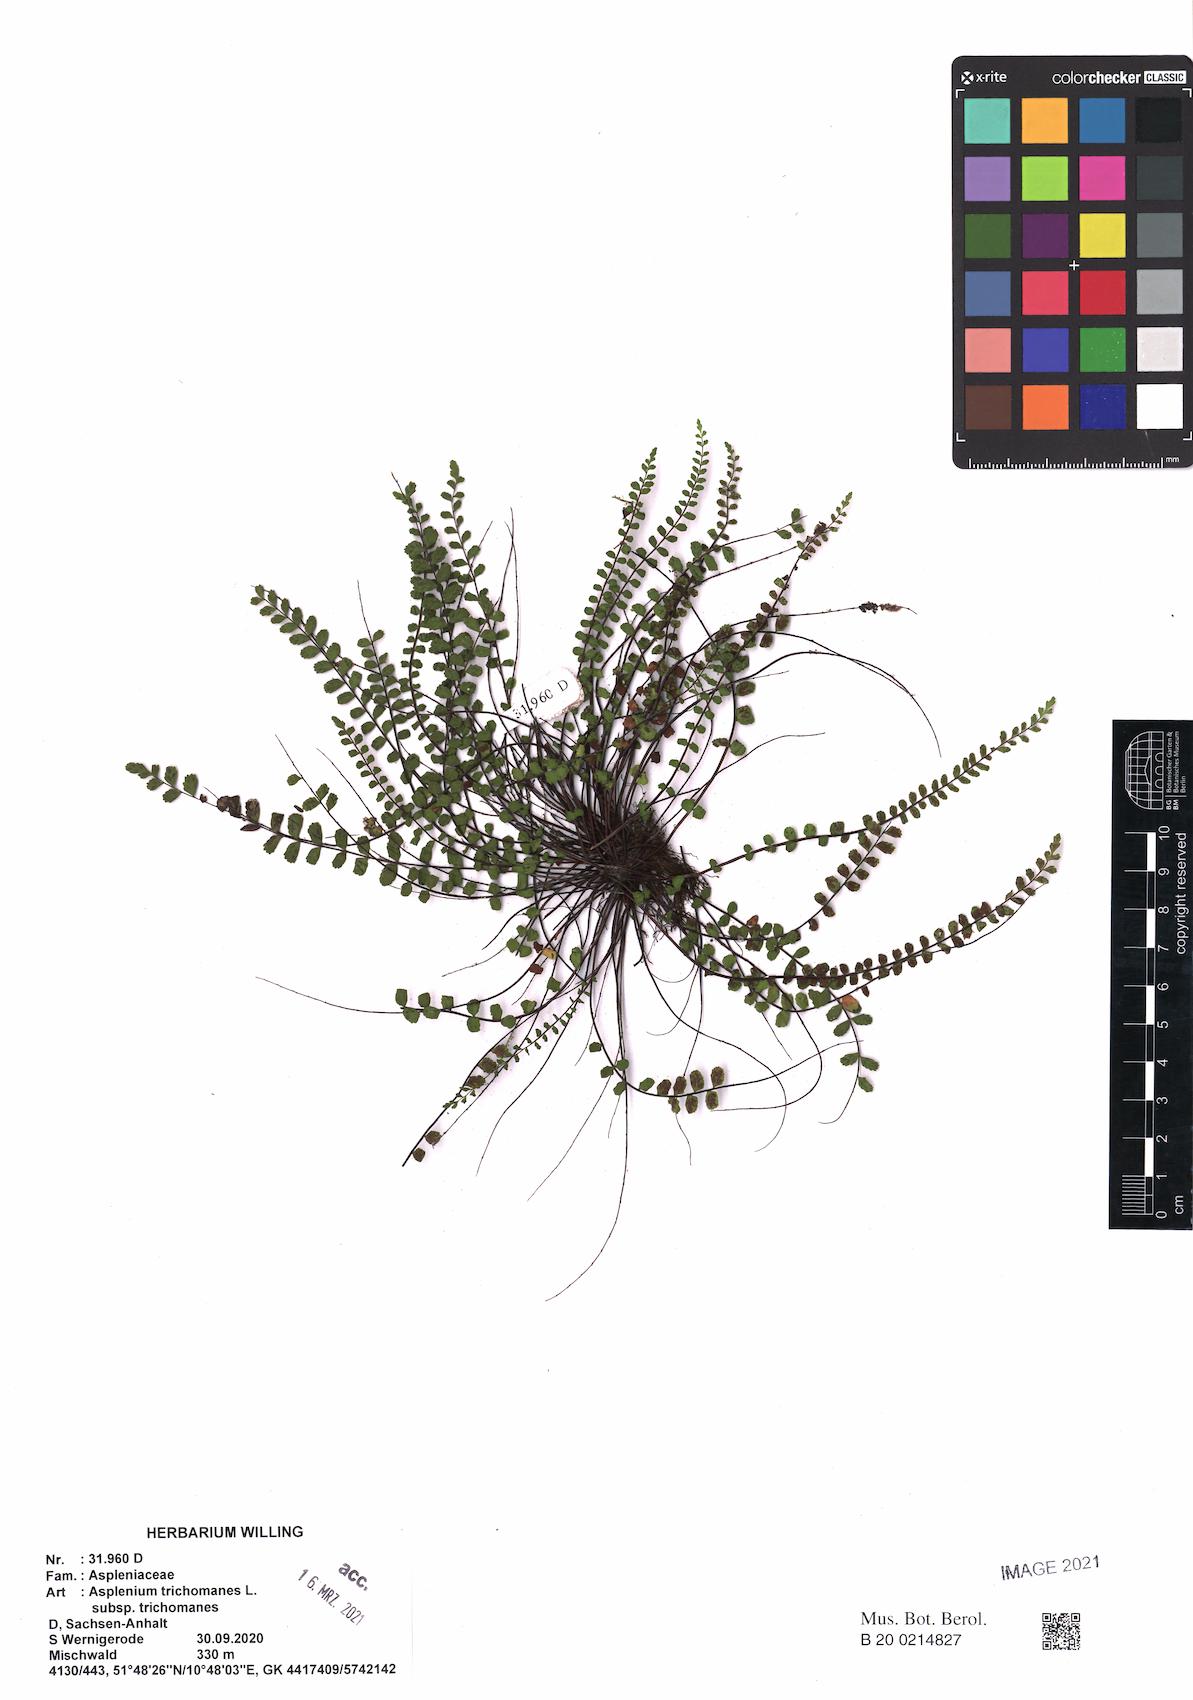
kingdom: Plantae
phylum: Tracheophyta
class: Polypodiopsida
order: Polypodiales
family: Aspleniaceae
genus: Asplenium
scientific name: Asplenium trichomanes
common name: Maidenhair spleenwort
